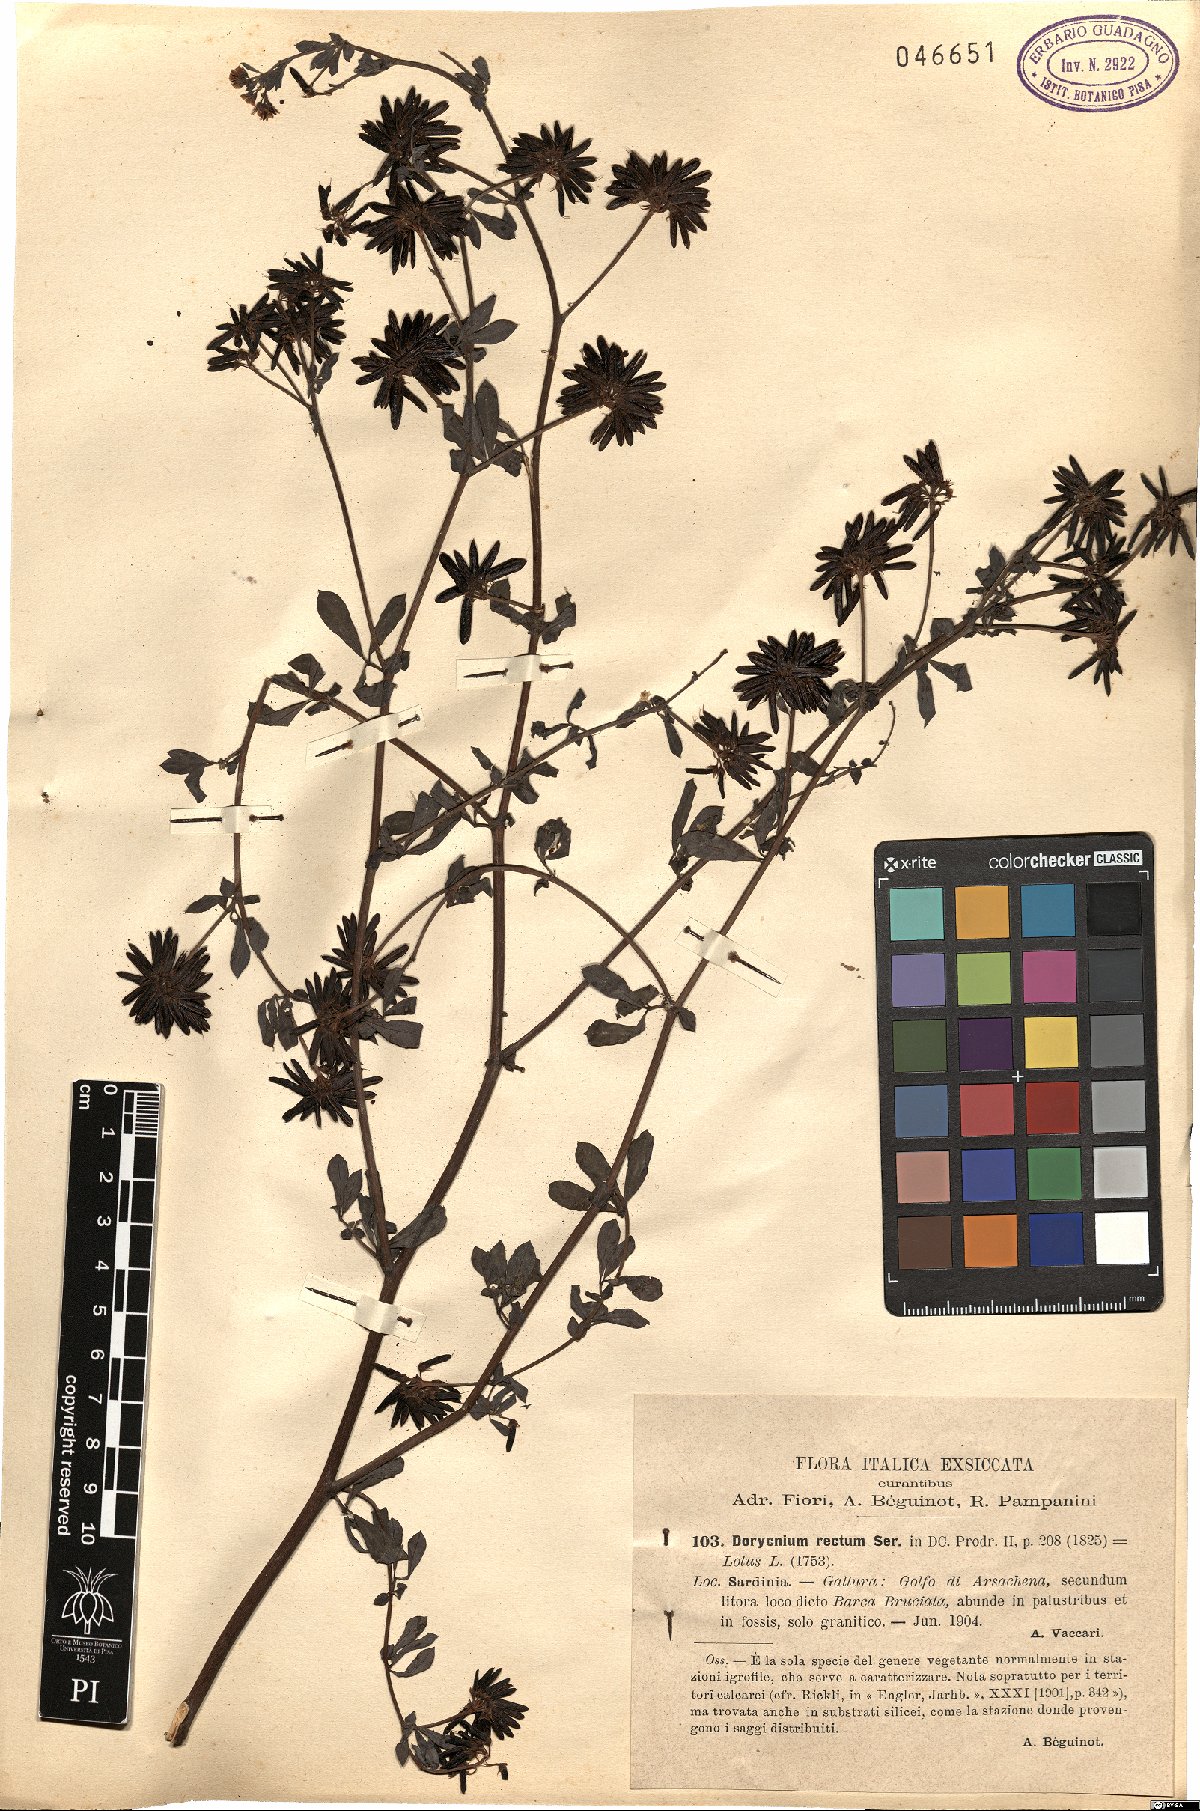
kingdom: Plantae
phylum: Tracheophyta
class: Magnoliopsida
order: Fabales
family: Fabaceae
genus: Lotus
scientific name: Lotus rectus
